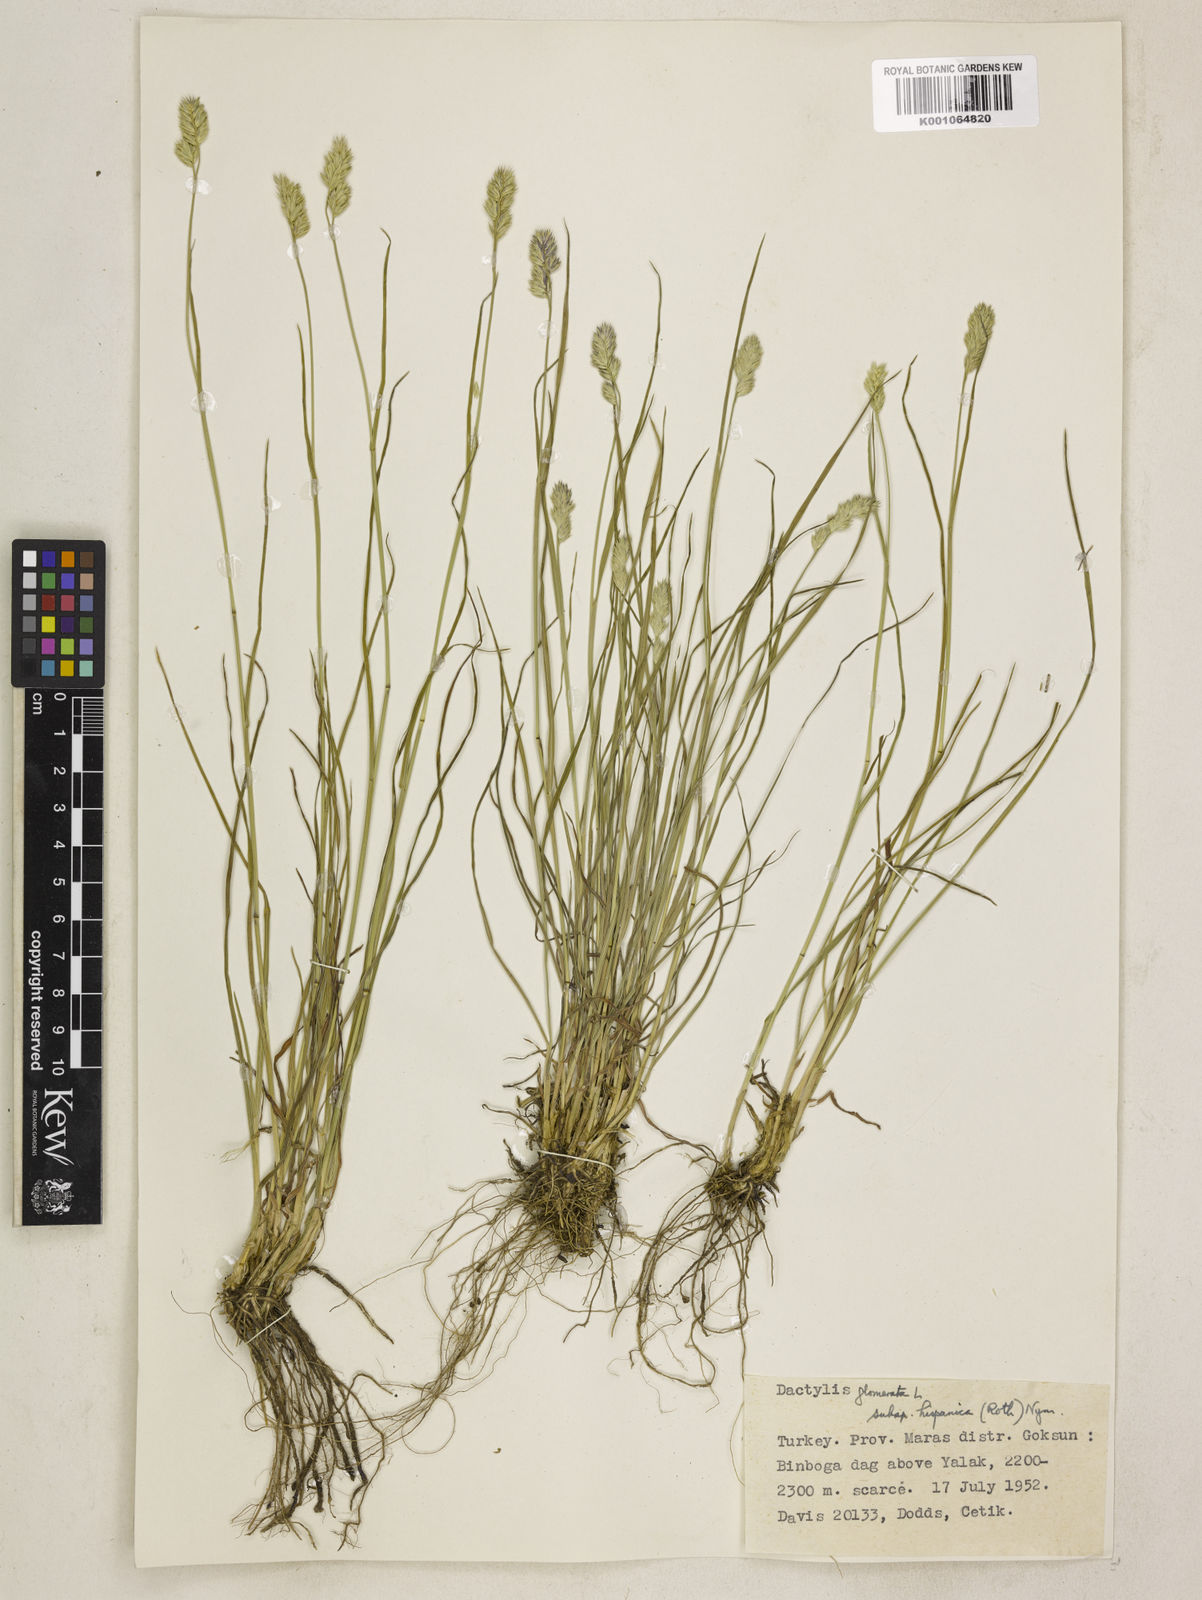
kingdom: Plantae
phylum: Tracheophyta
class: Liliopsida
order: Poales
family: Poaceae
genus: Dactylis
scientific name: Dactylis glomerata
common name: Orchardgrass
